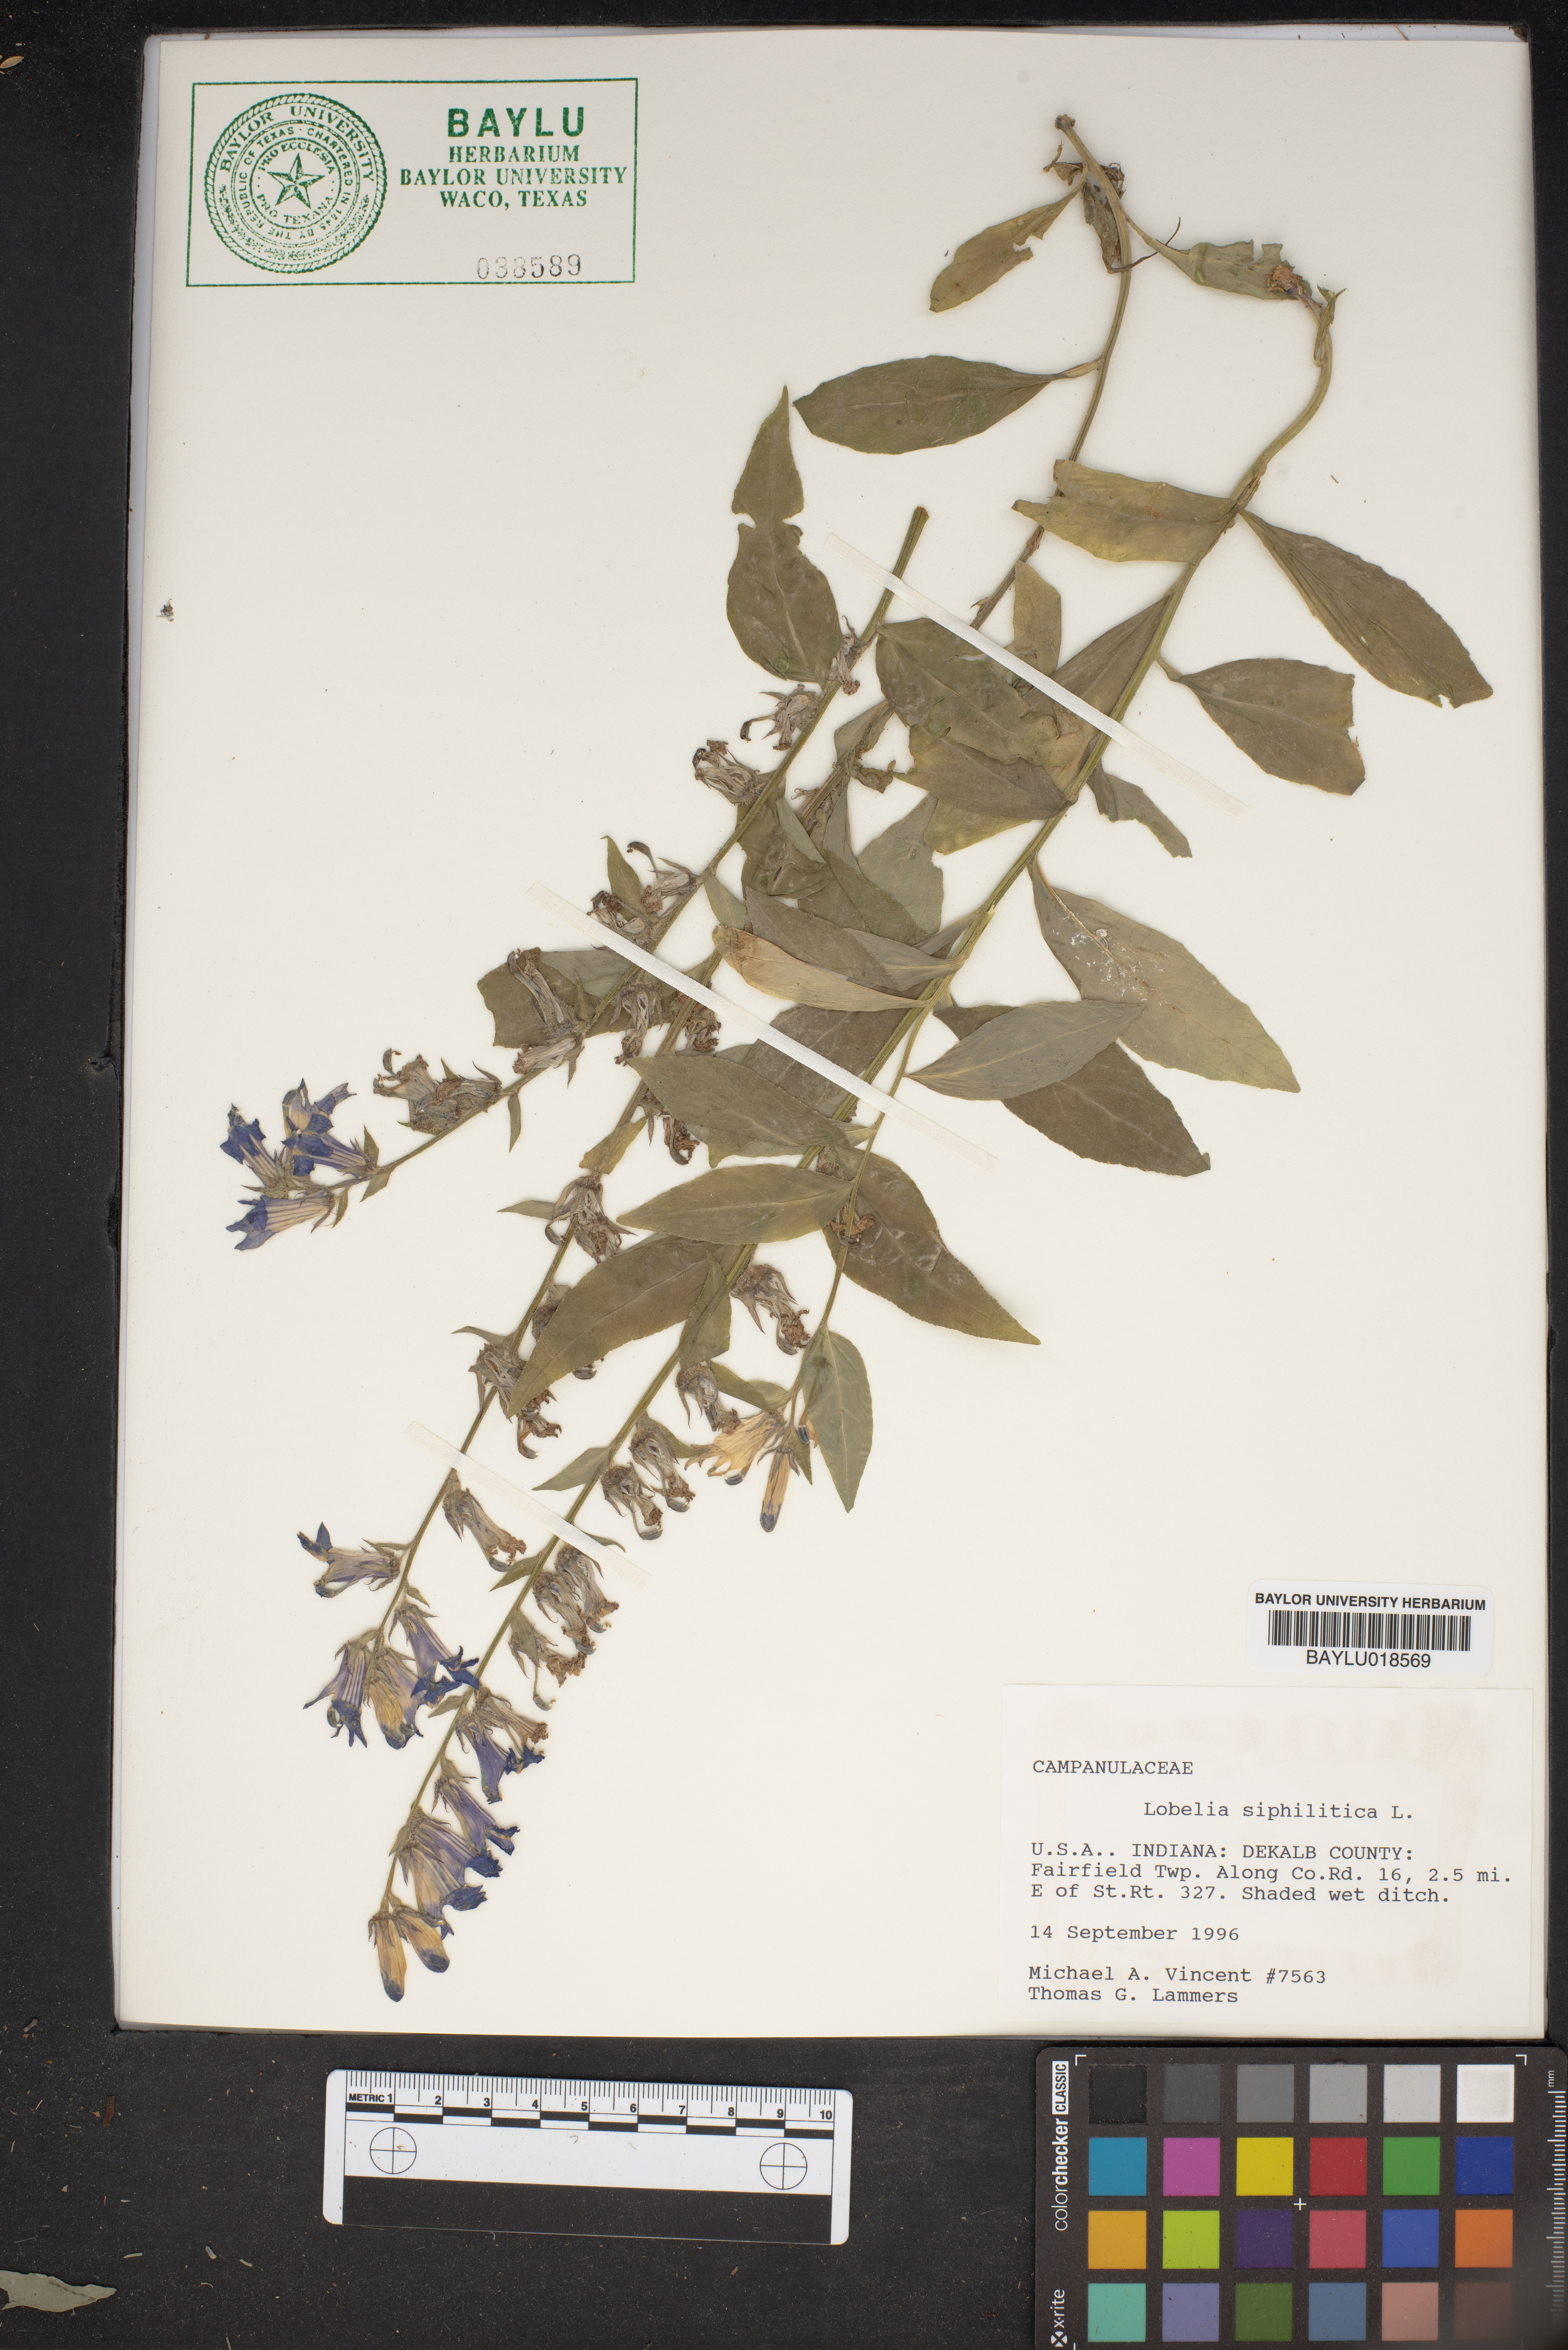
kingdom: Plantae
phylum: Tracheophyta
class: Magnoliopsida
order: Asterales
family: Campanulaceae
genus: Lobelia
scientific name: Lobelia siphilitica
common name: Great lobelia
